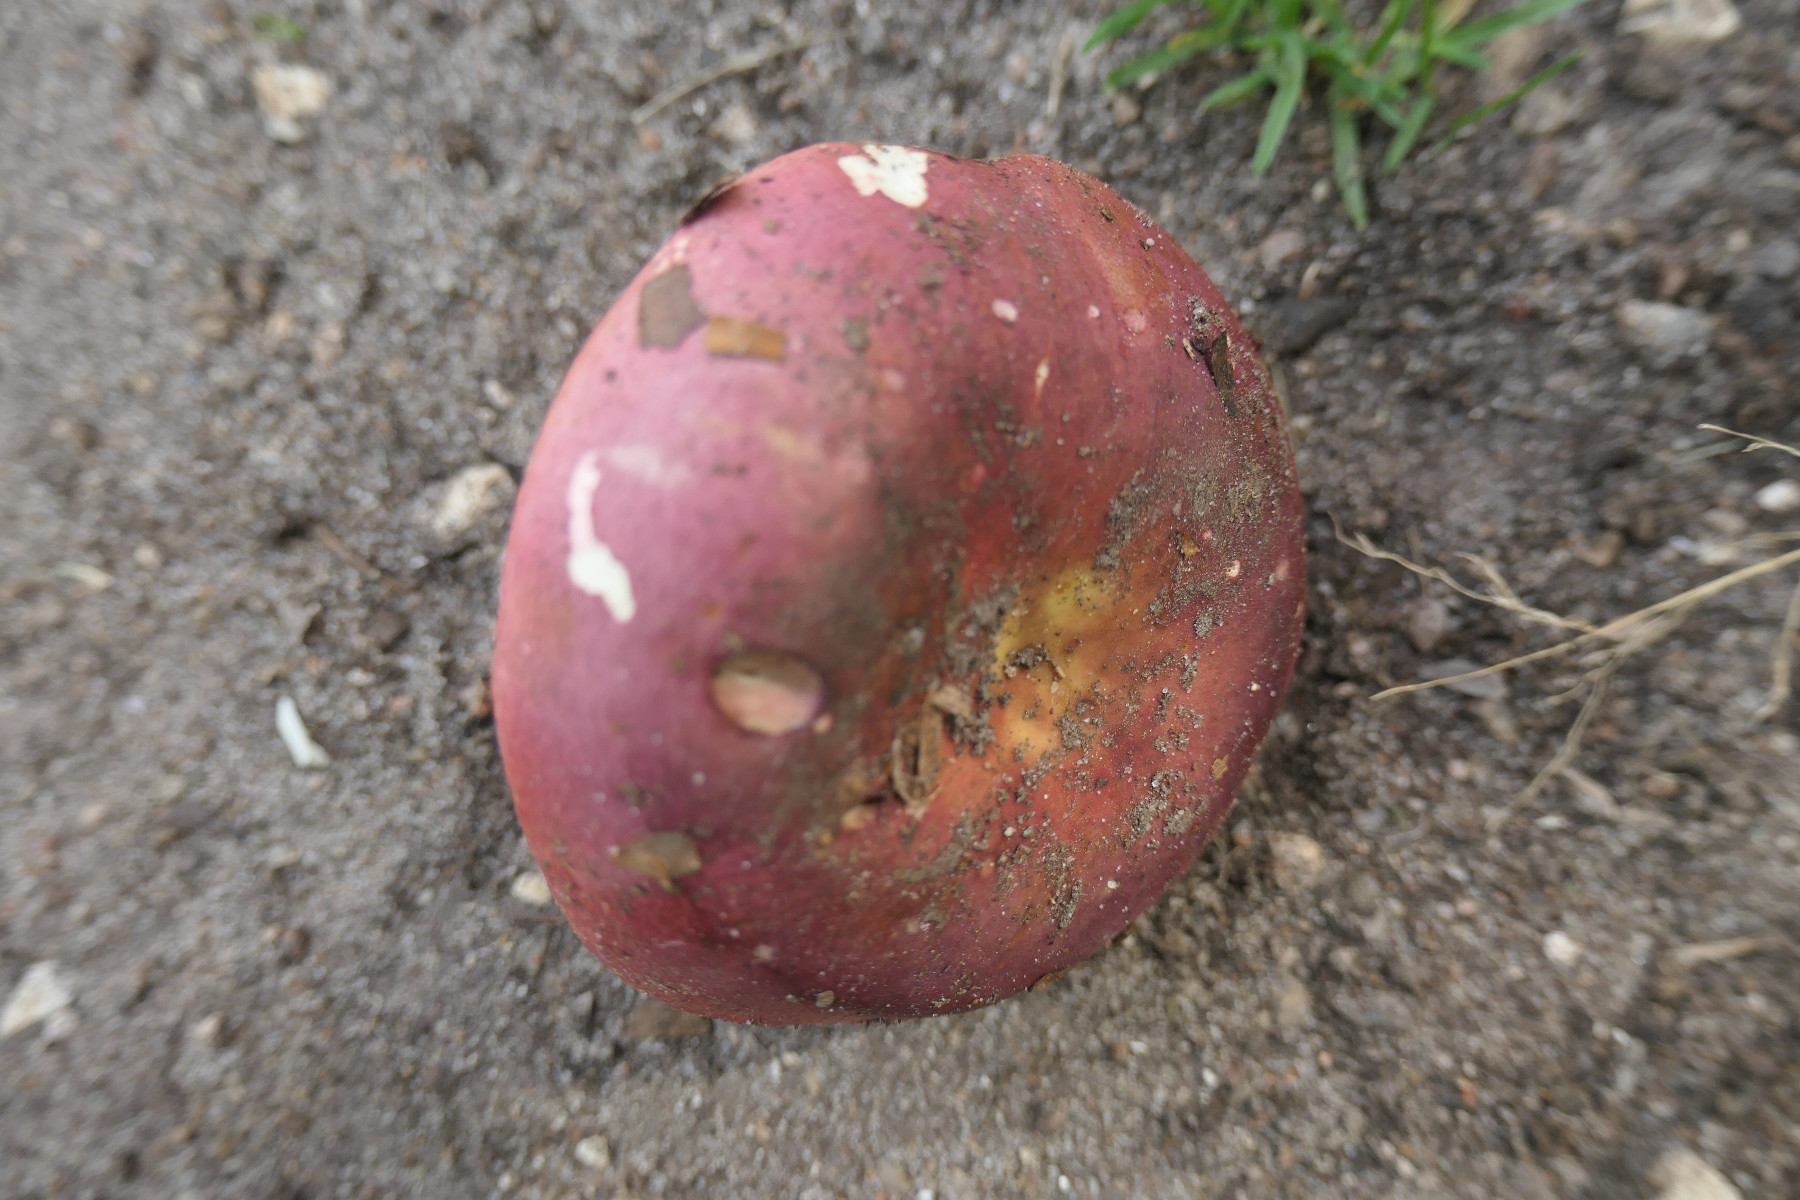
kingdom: Fungi
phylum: Basidiomycota
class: Agaricomycetes
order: Russulales
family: Russulaceae
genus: Russula
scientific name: Russula faginea
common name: bøge-skørhat
